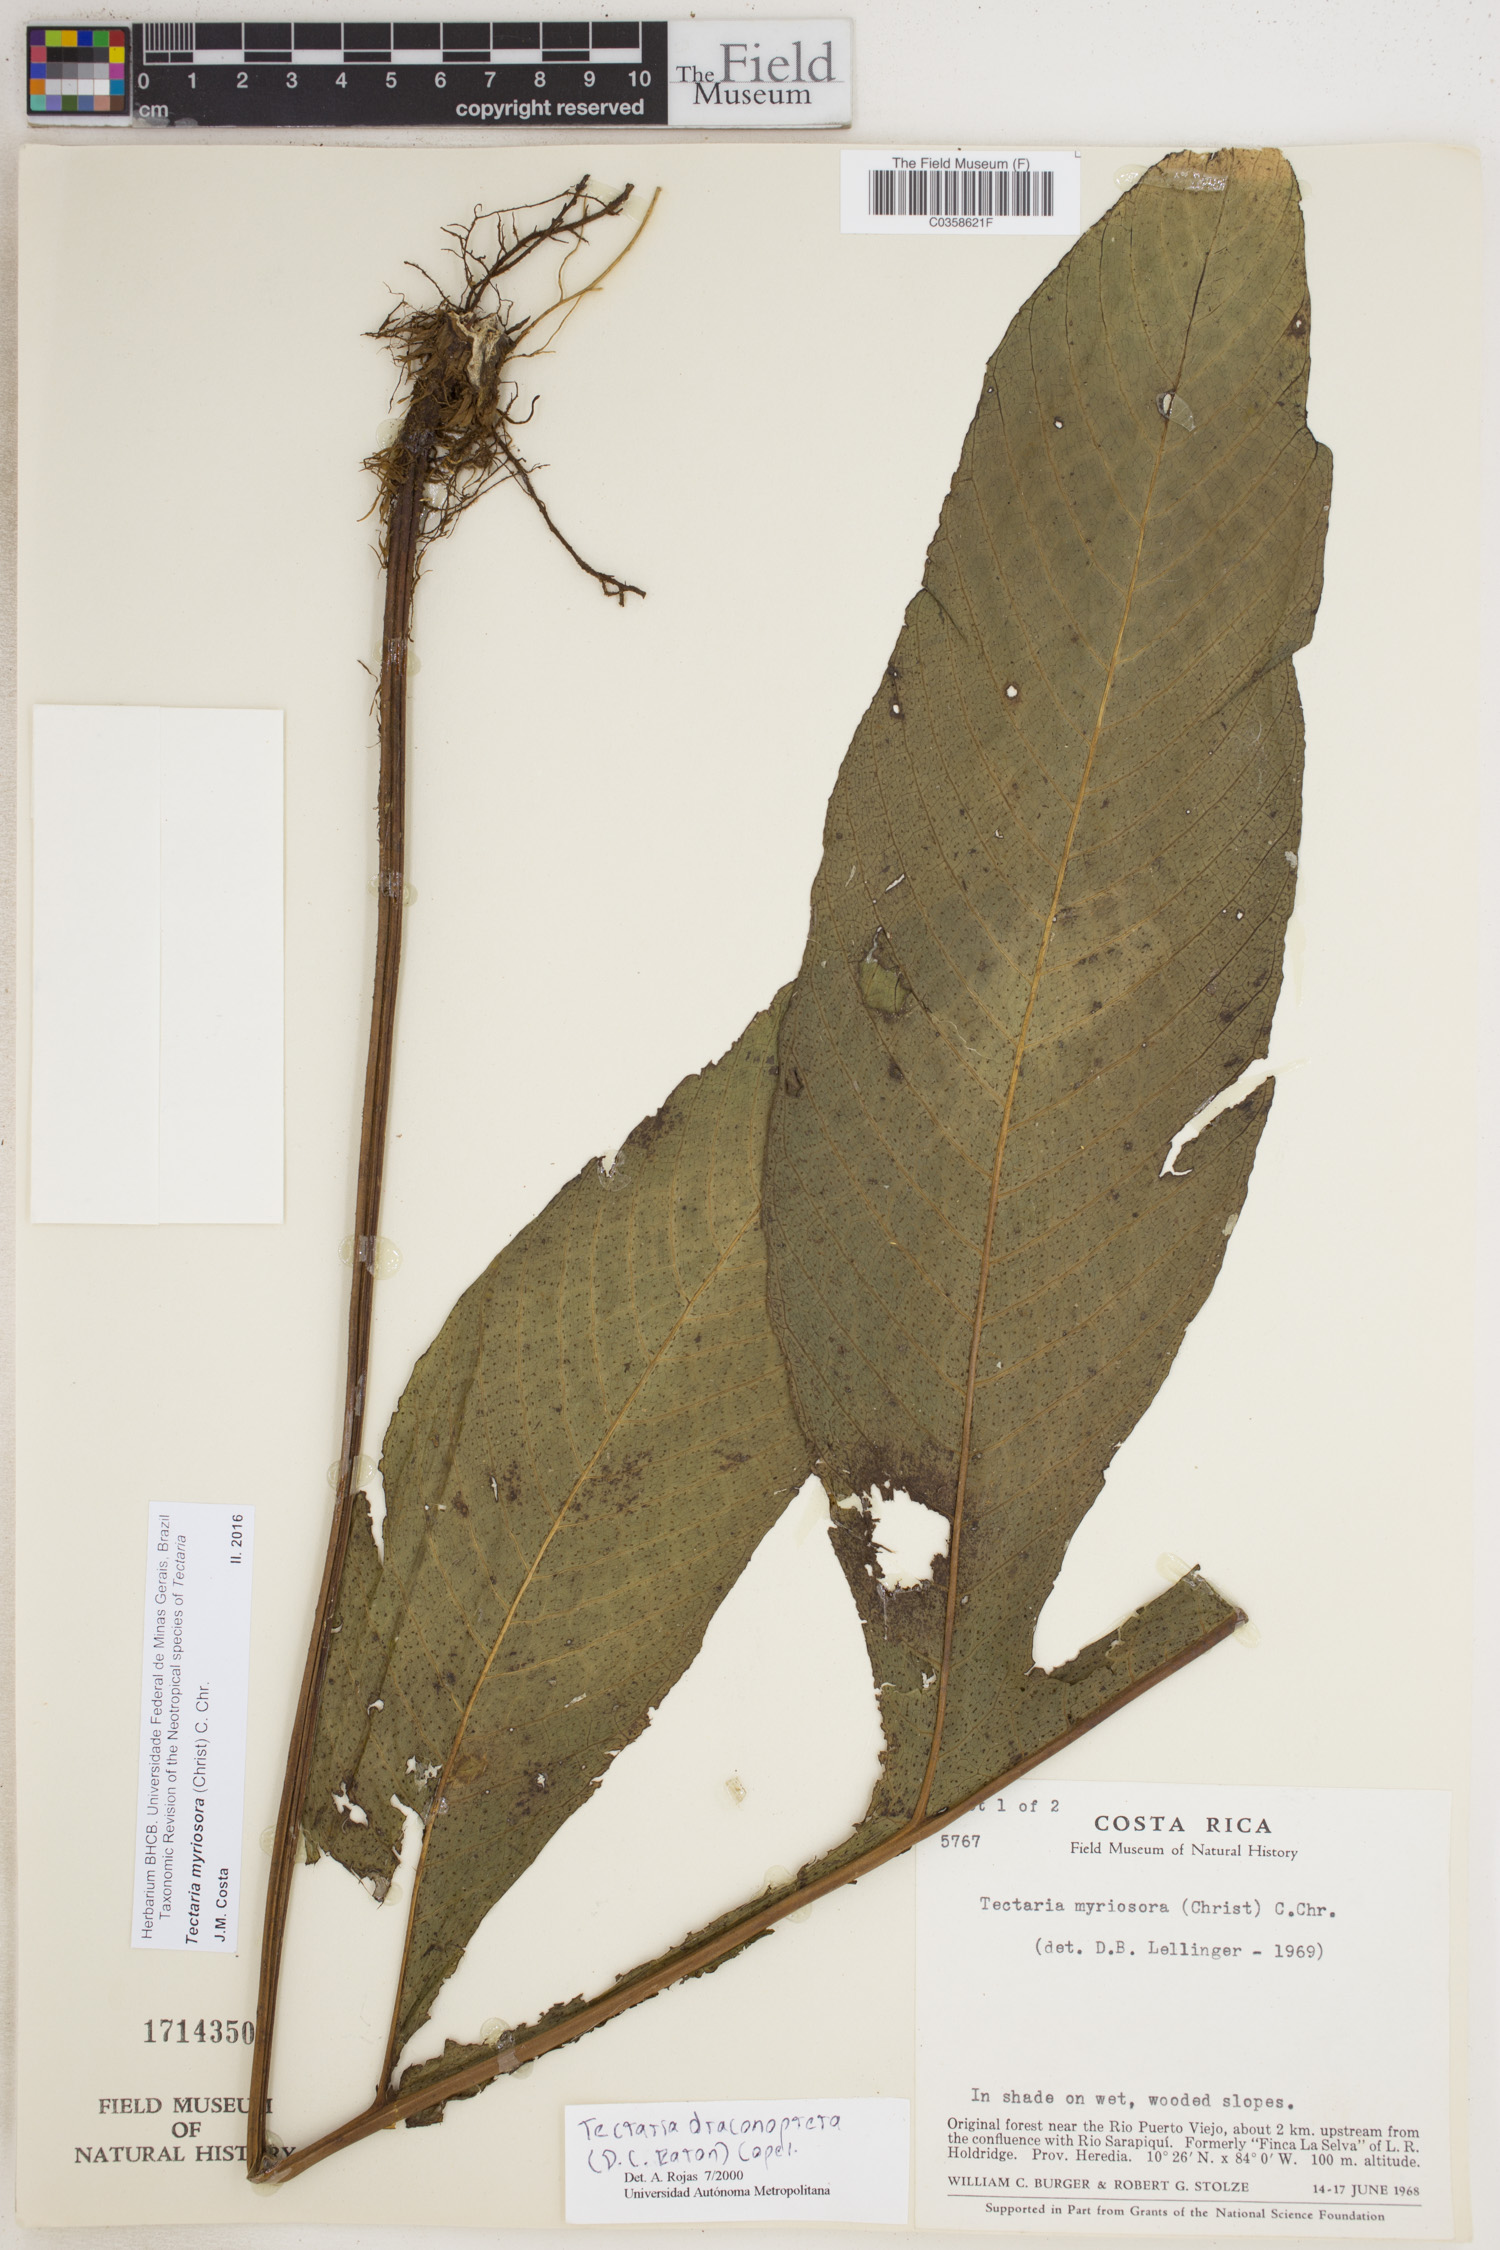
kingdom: Plantae
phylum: Tracheophyta
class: Polypodiopsida
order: Polypodiales
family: Tectariaceae
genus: Draconopteris
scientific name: Draconopteris draconoptera
